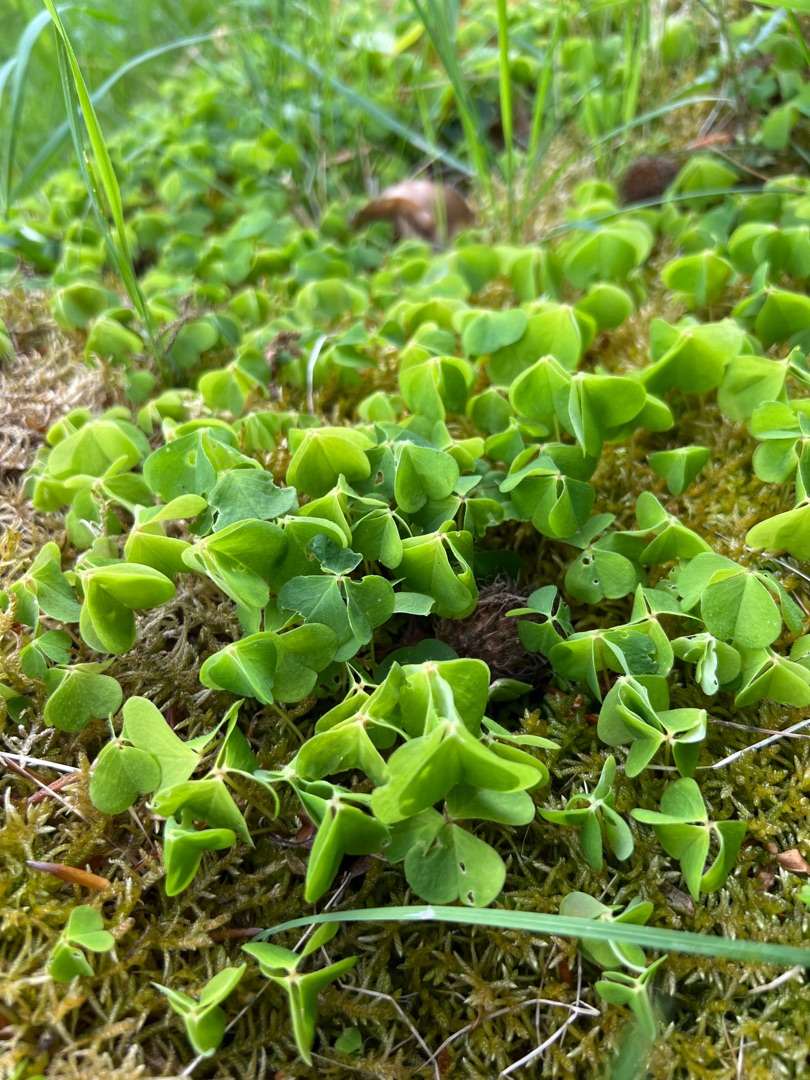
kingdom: Plantae
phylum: Tracheophyta
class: Magnoliopsida
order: Oxalidales
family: Oxalidaceae
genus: Oxalis
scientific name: Oxalis acetosella
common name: Skovsyre
